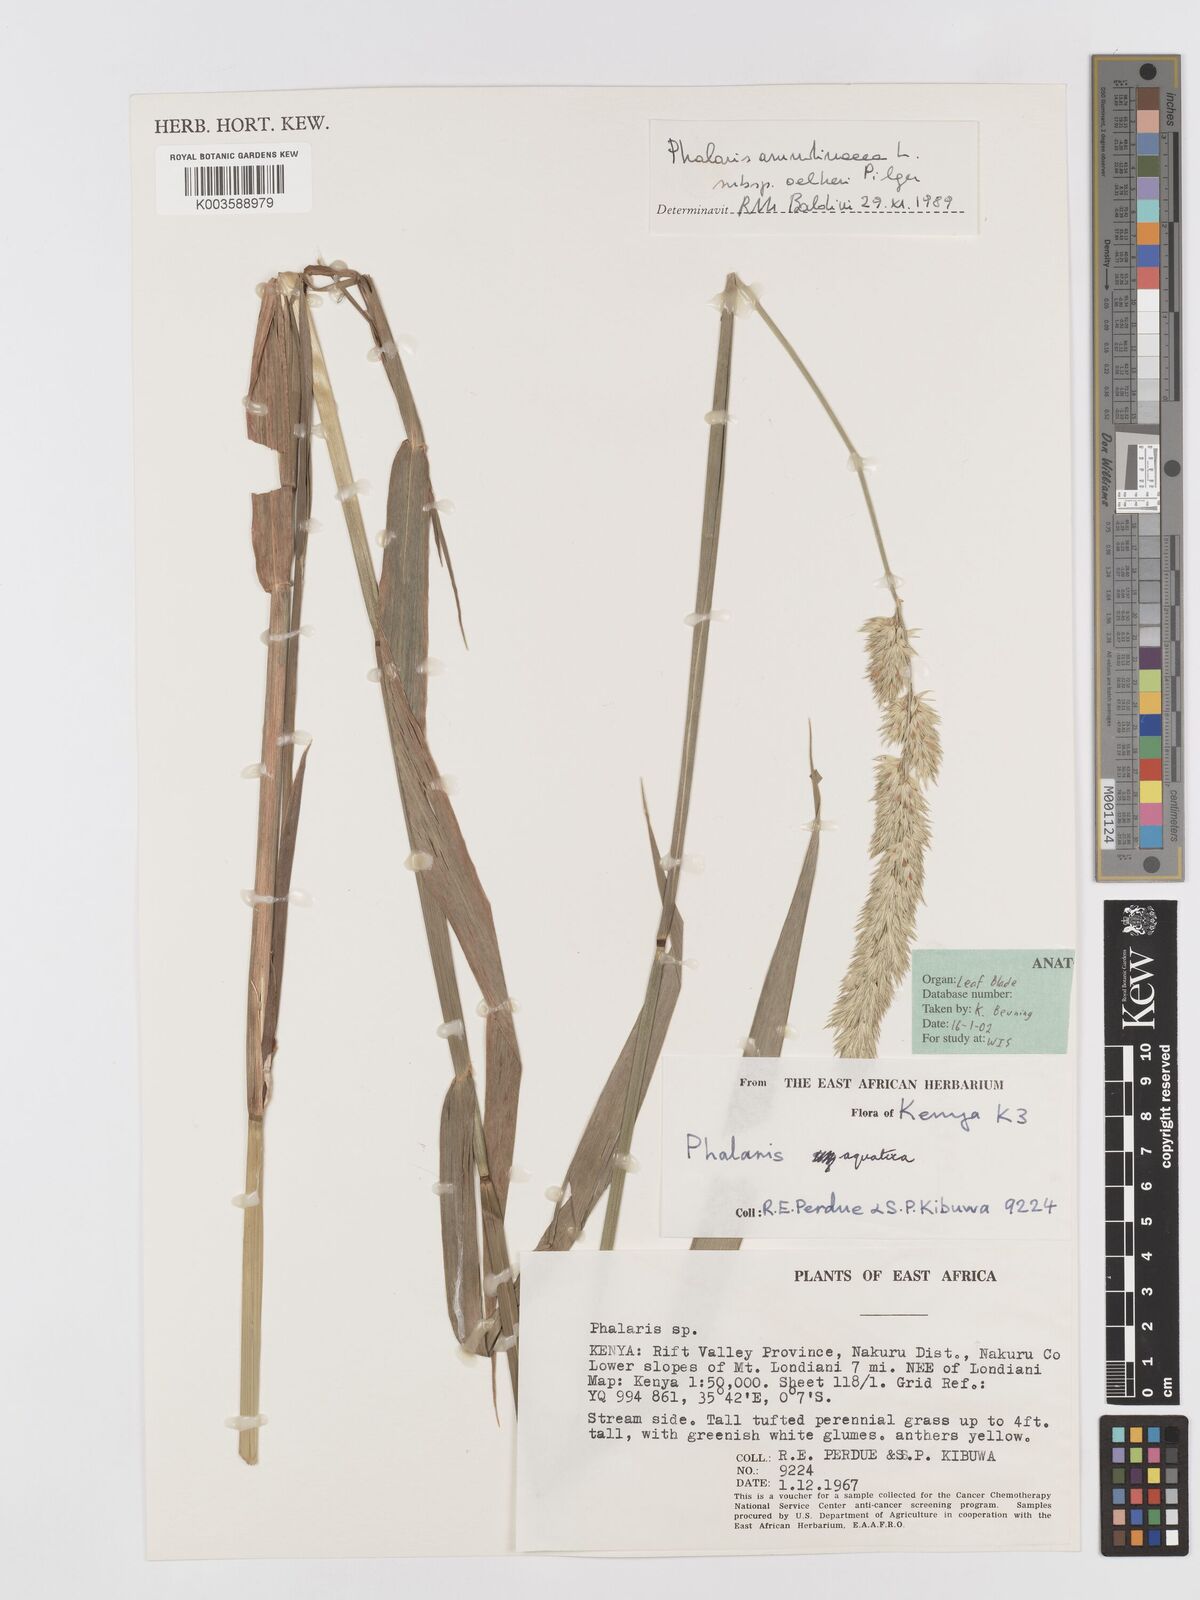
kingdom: Plantae
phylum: Tracheophyta
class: Liliopsida
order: Poales
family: Poaceae
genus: Phalaris
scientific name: Phalaris aquatica
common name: Bulbous canary-grass
